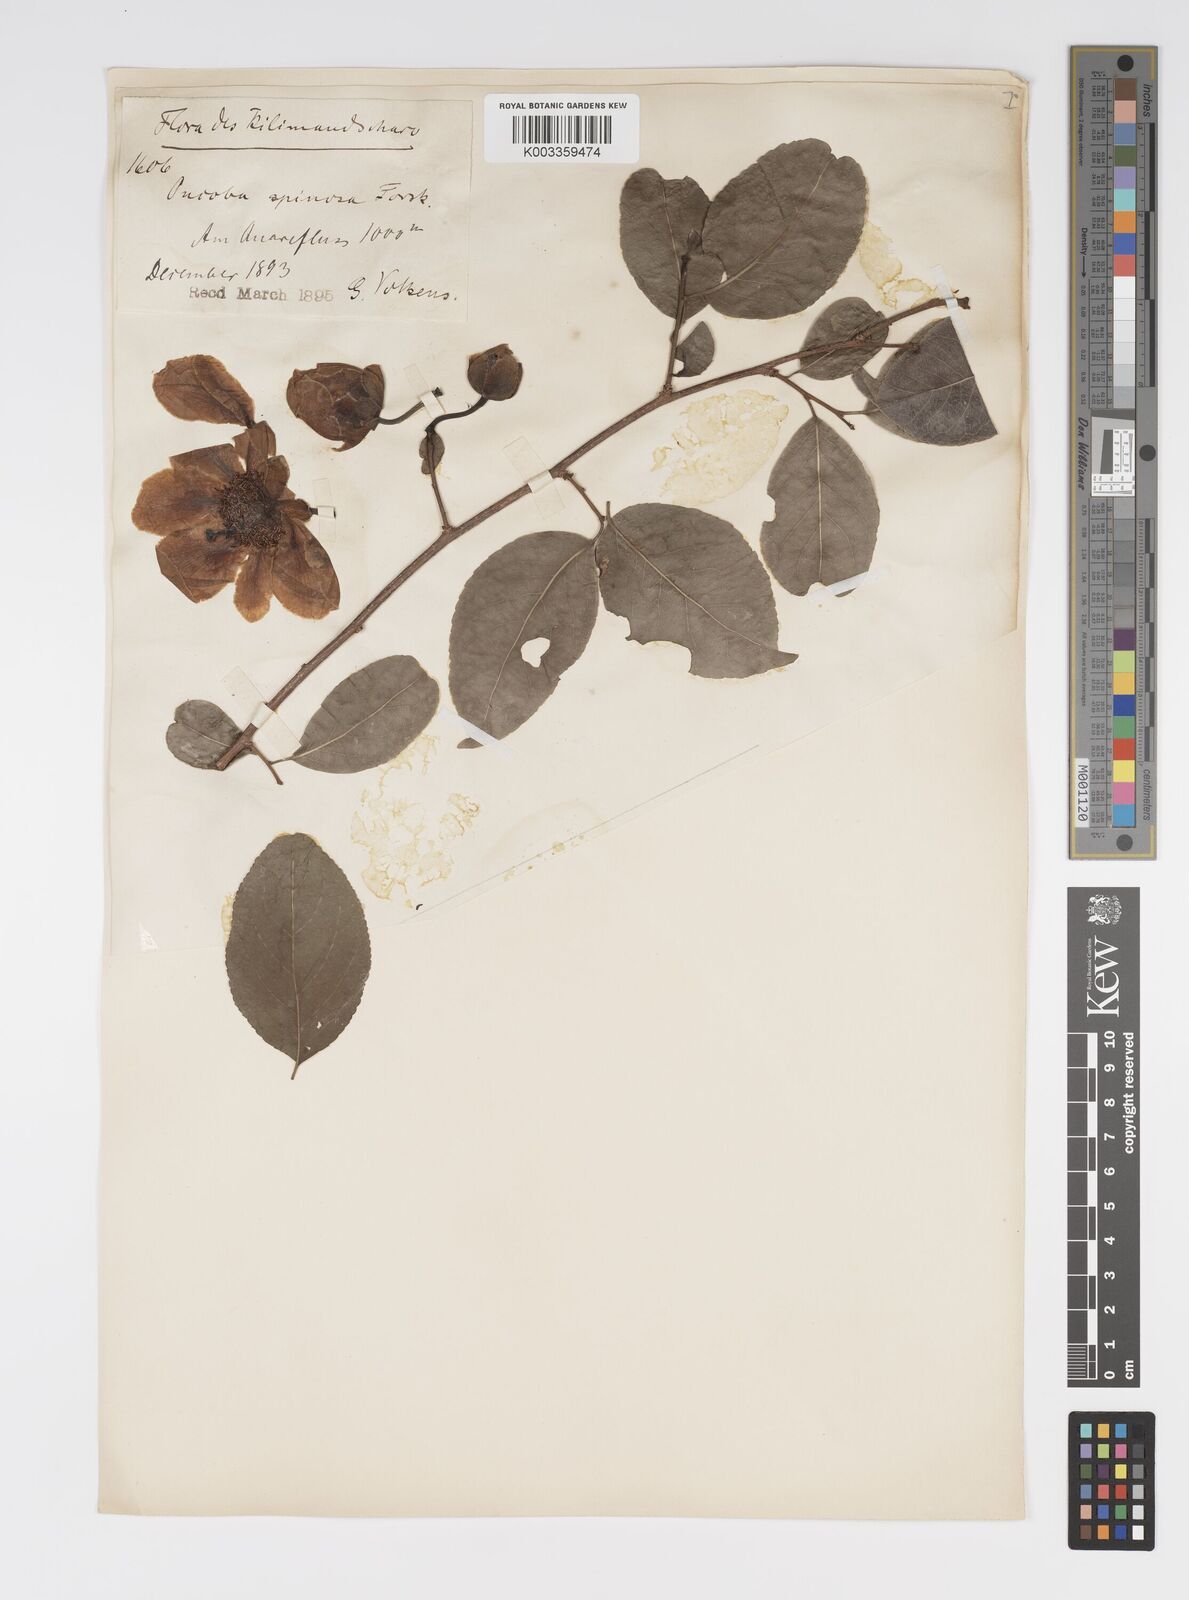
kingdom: Plantae
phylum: Tracheophyta
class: Magnoliopsida
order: Malpighiales
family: Salicaceae
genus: Oncoba
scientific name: Oncoba spinosa
